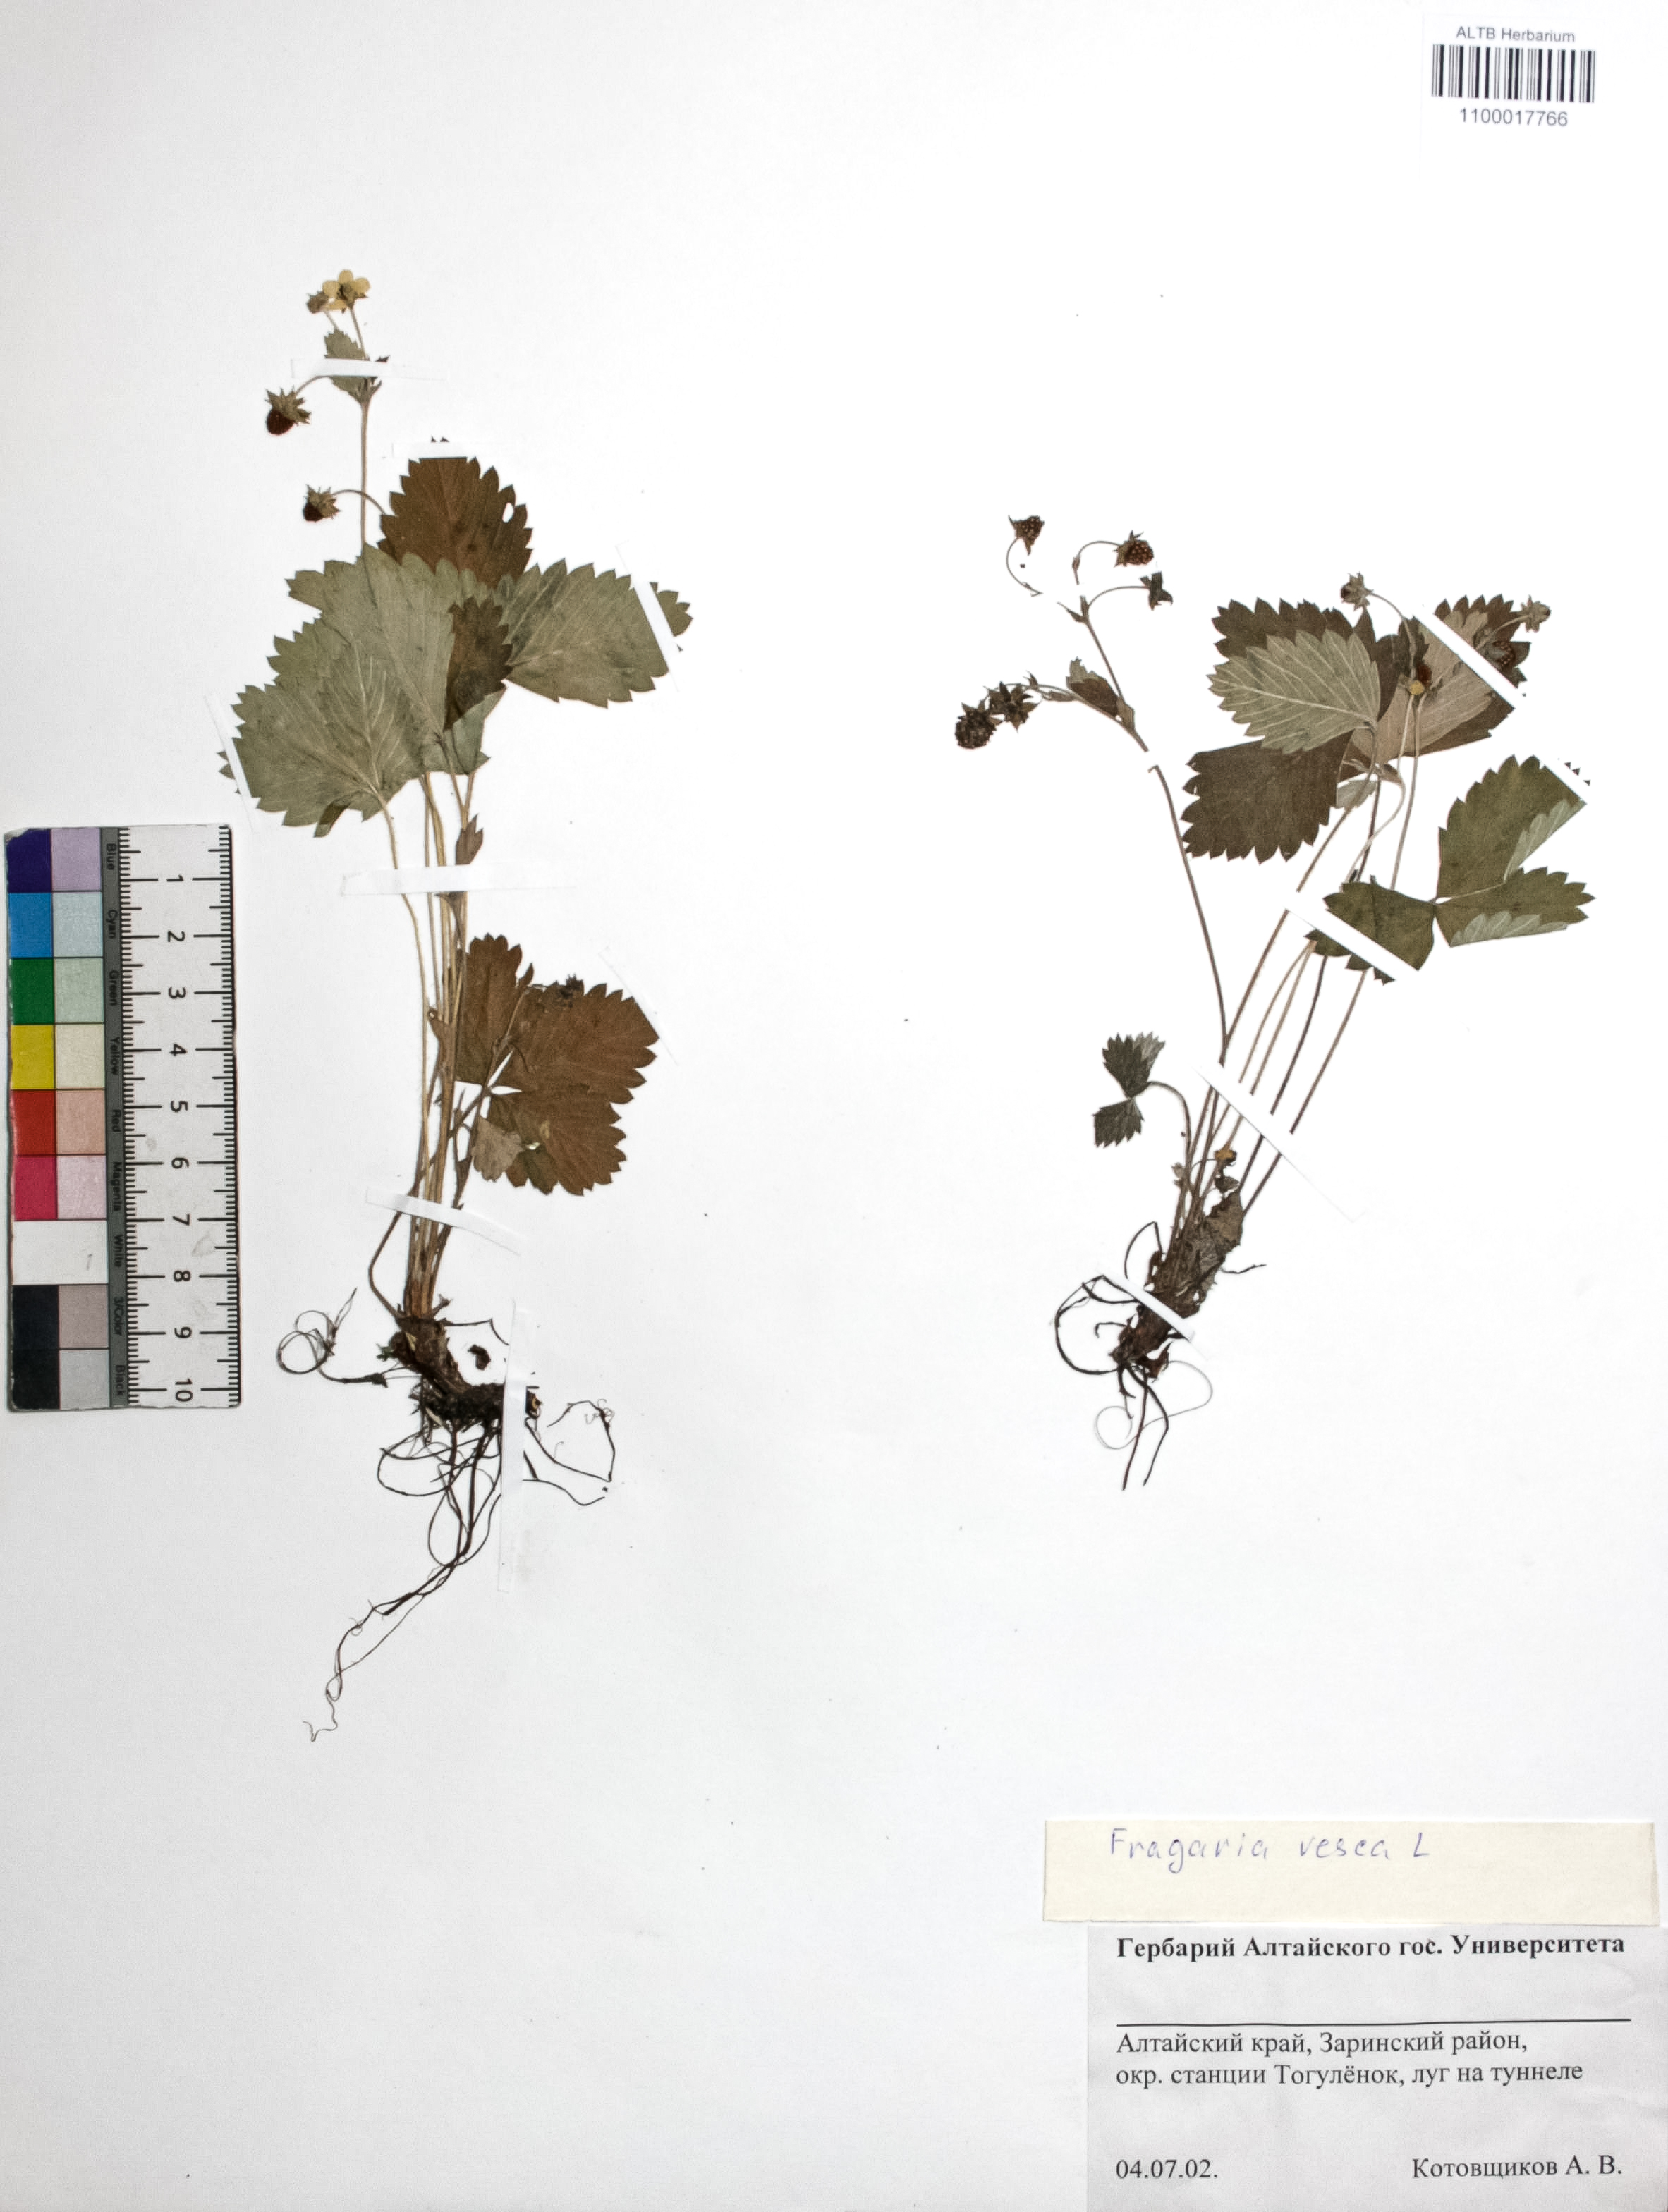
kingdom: Plantae
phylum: Tracheophyta
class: Magnoliopsida
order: Rosales
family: Rosaceae
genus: Fragaria
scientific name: Fragaria vesca
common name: Wild strawberry
